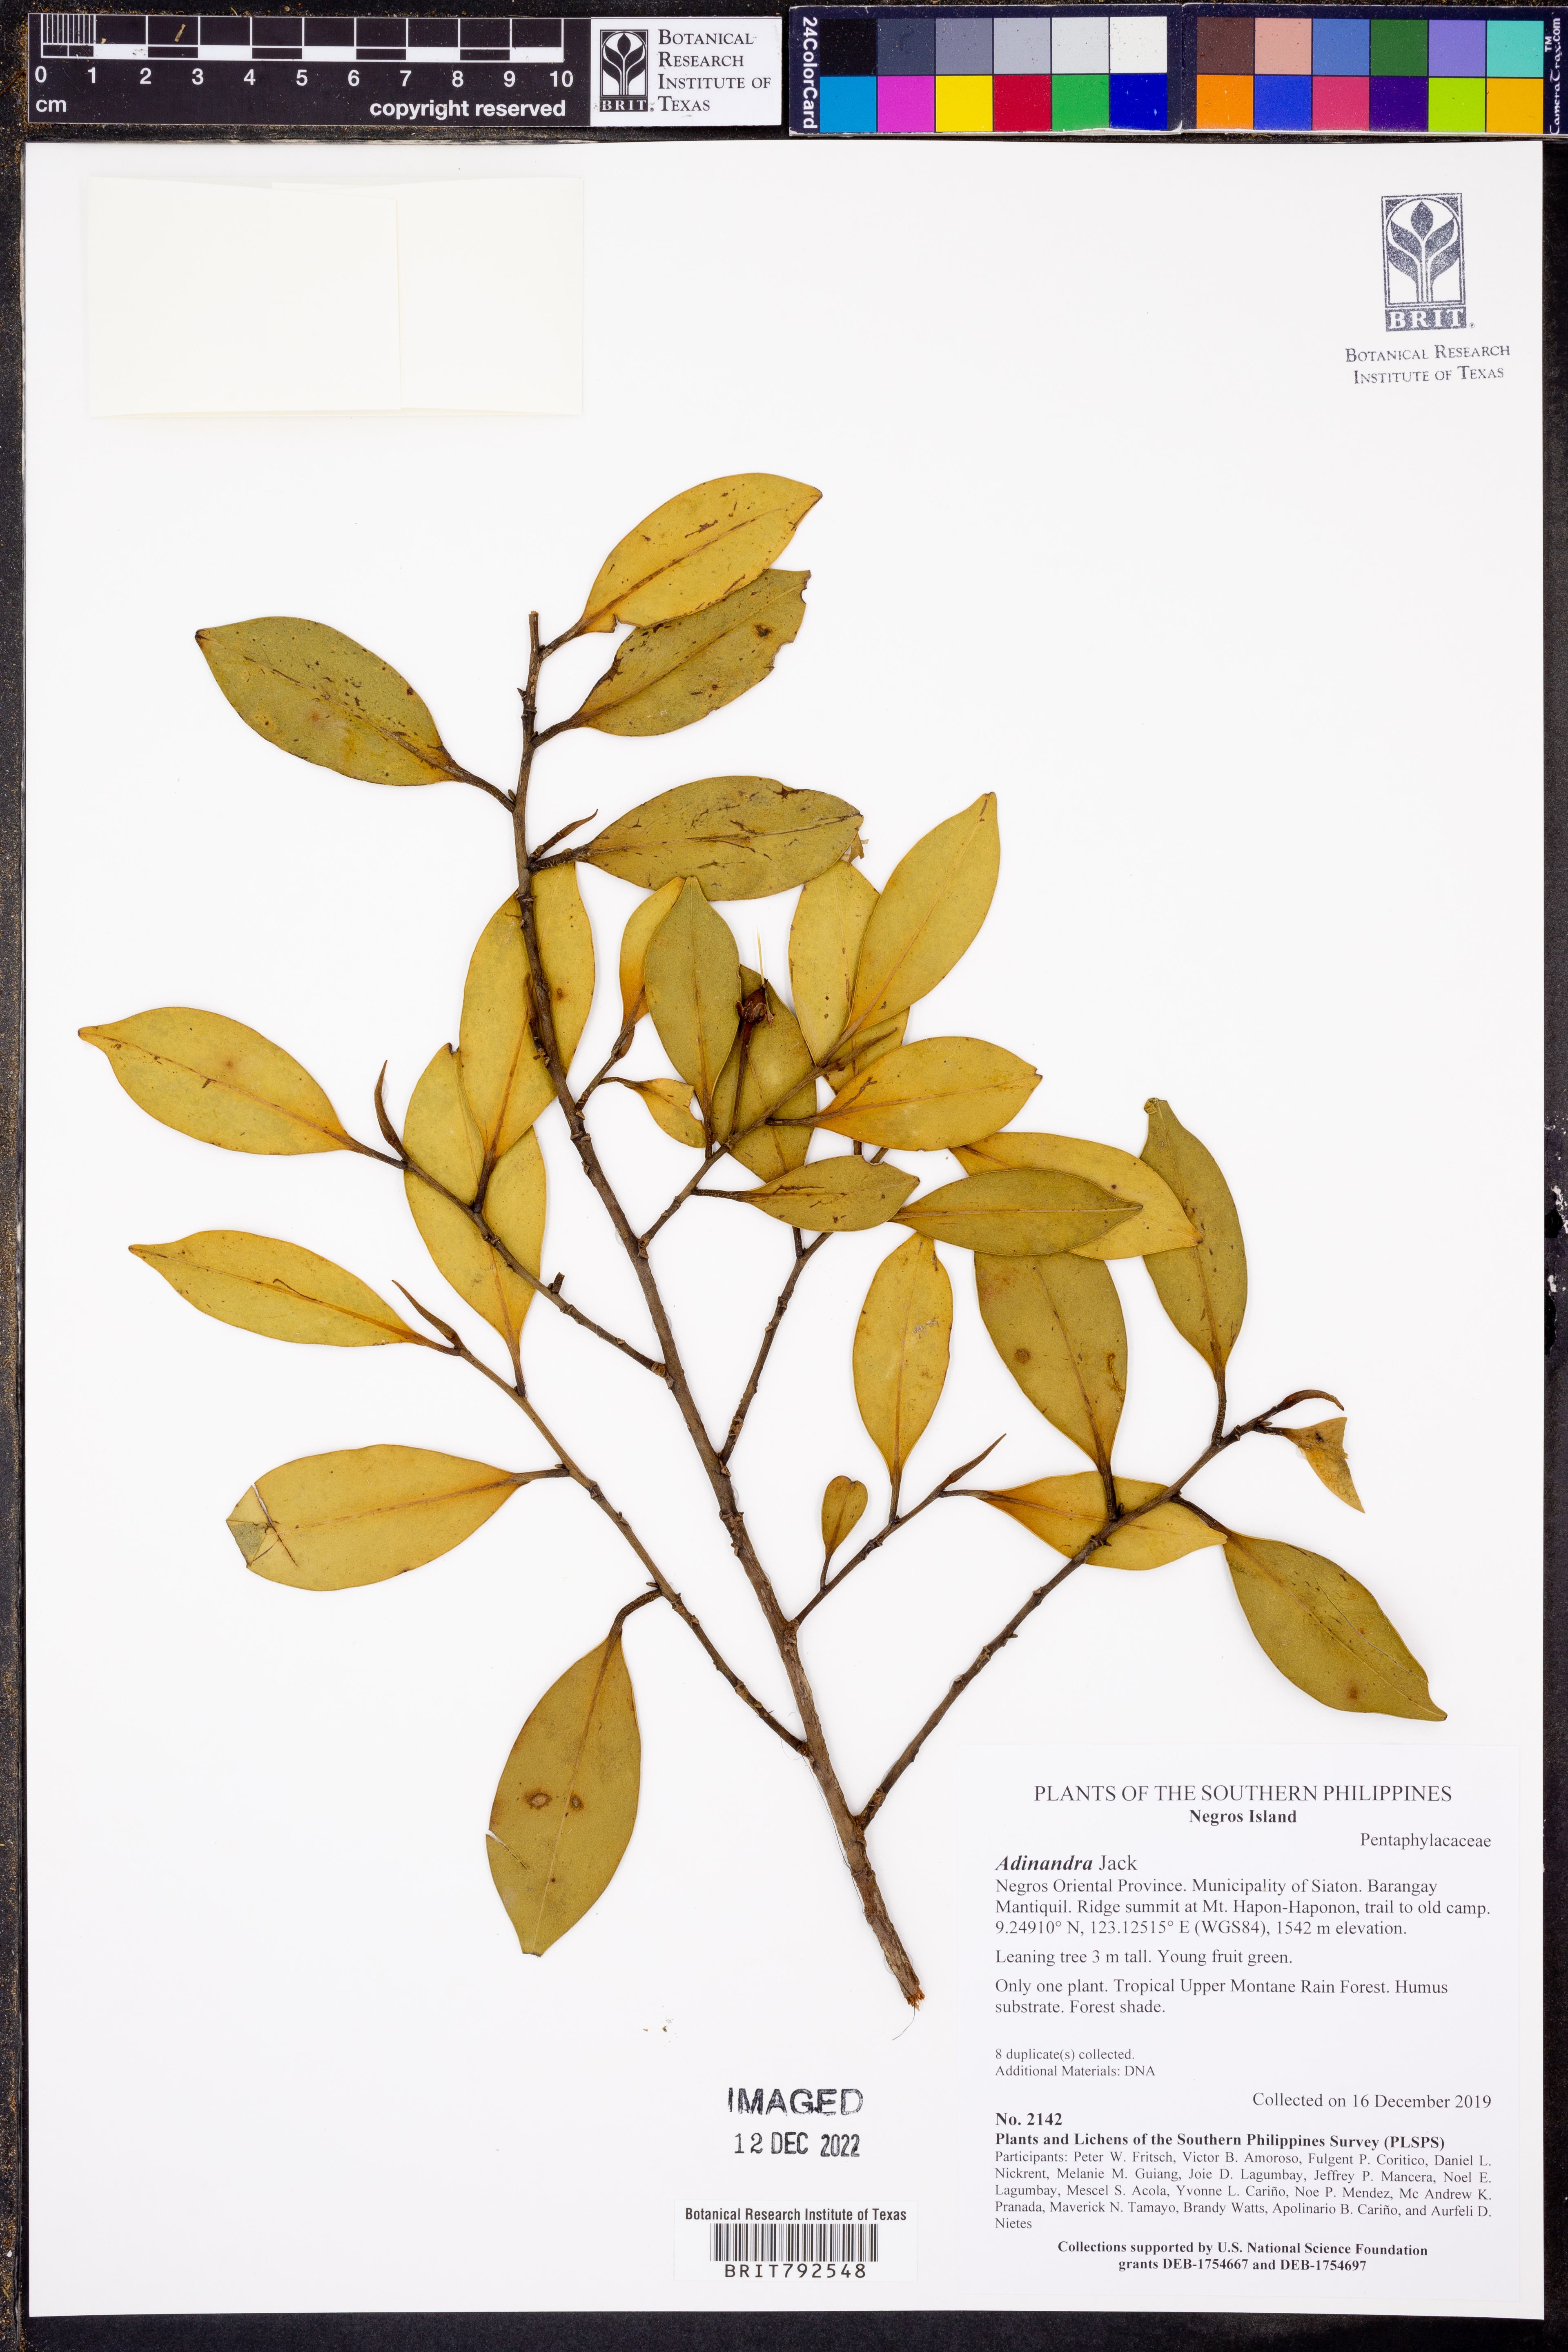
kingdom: Plantae
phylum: Tracheophyta
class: Magnoliopsida
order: Ericales
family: Pentaphylacaceae
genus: Adinandra
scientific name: Adinandra
